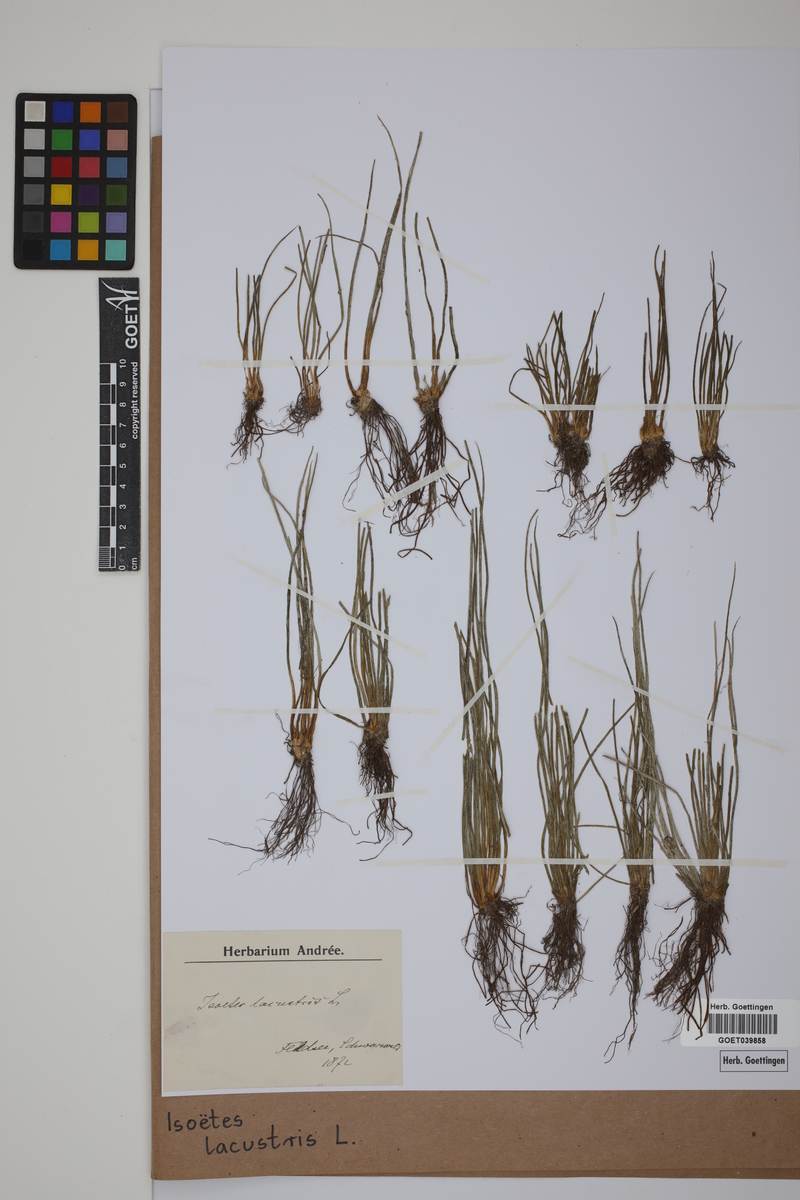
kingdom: Plantae
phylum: Tracheophyta
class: Lycopodiopsida
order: Isoetales
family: Isoetaceae
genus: Isoetes
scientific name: Isoetes lacustris
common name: Common quillwort
